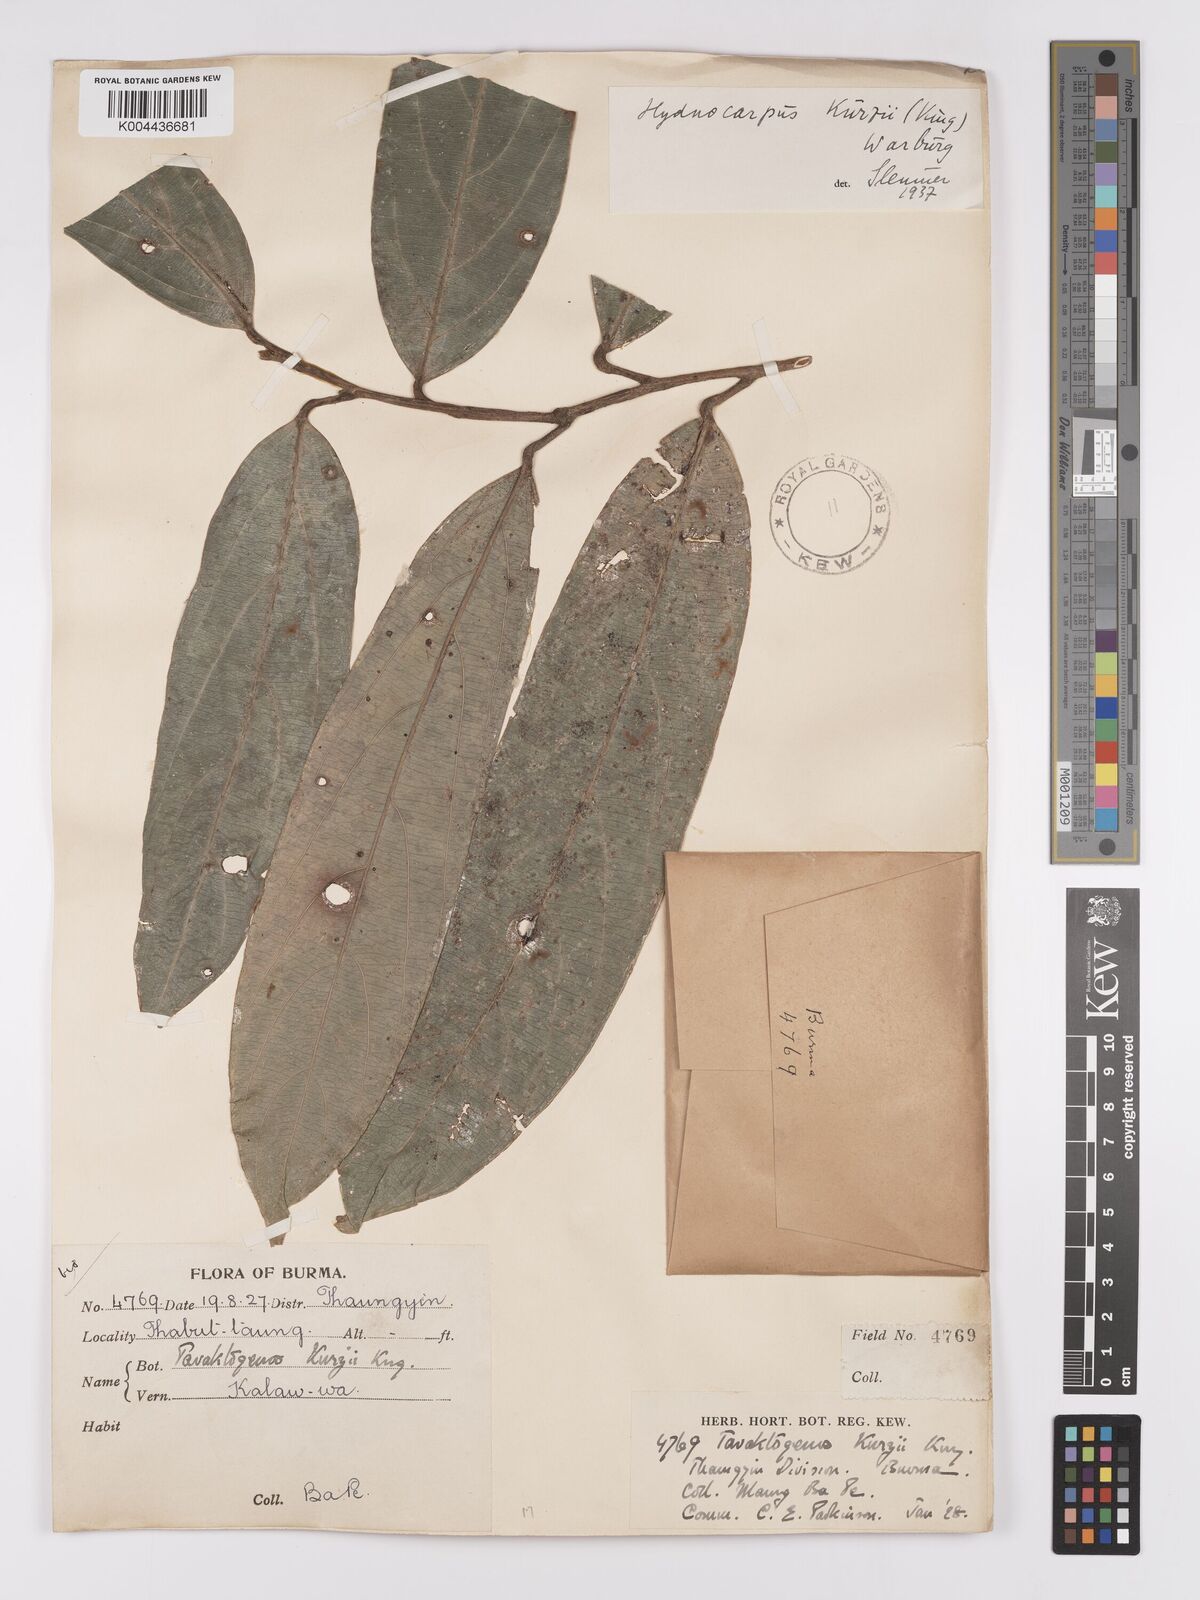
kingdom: Plantae
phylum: Tracheophyta
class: Magnoliopsida
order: Malpighiales
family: Achariaceae
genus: Hydnocarpus
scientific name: Hydnocarpus kurzii
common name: Chaulmoogra
